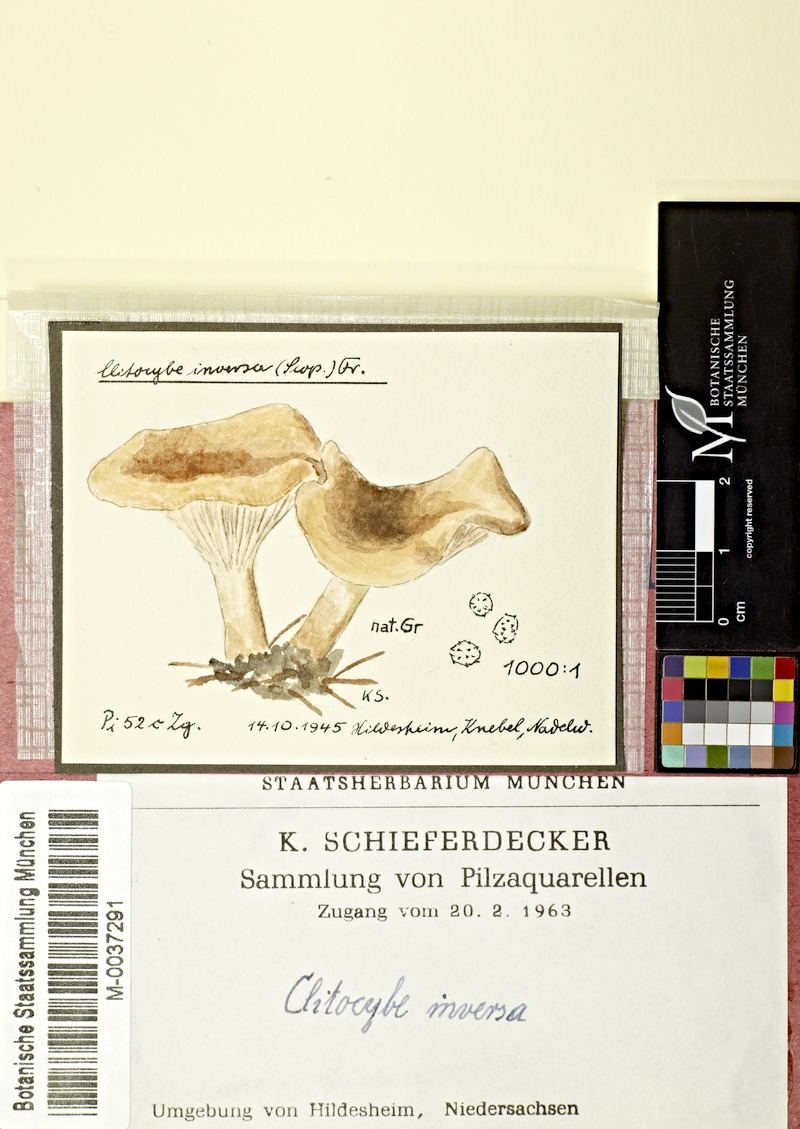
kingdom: Fungi
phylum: Basidiomycota
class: Agaricomycetes
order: Agaricales
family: Tricholomataceae
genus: Paralepista
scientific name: Paralepista flaccida
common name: Tawny funnel cap
